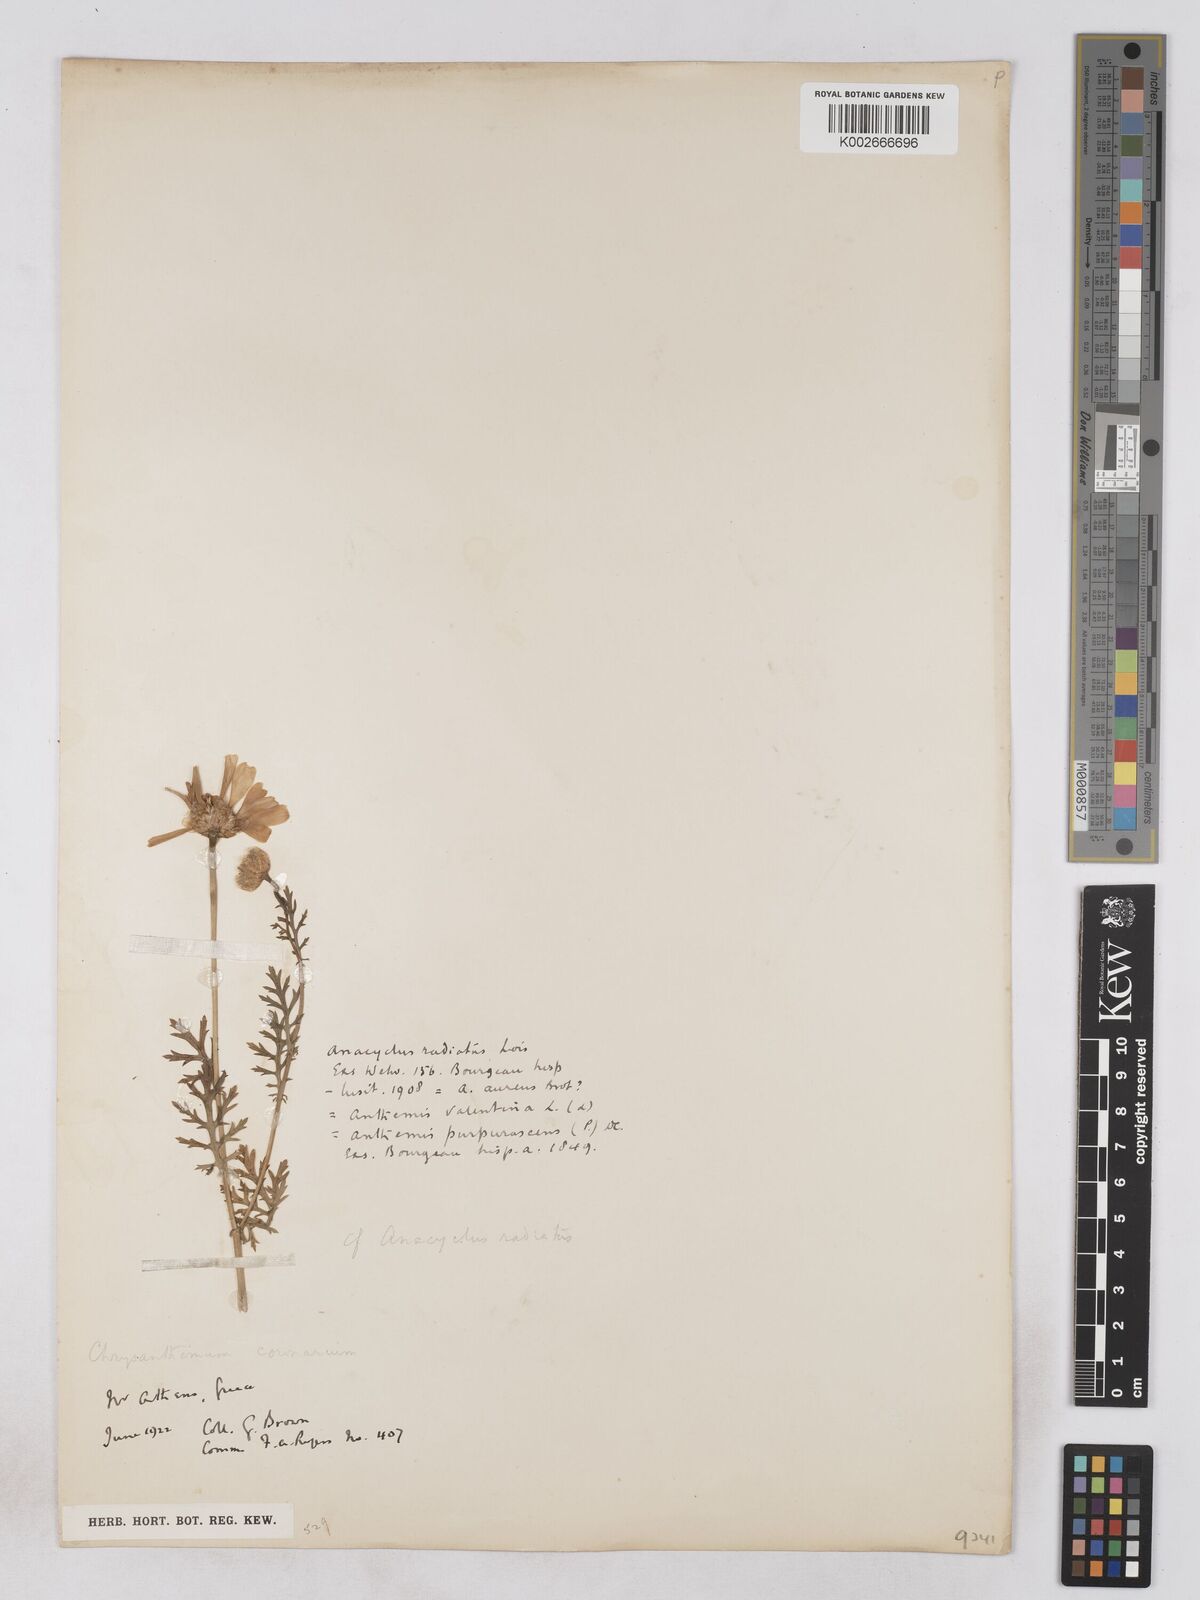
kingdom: Plantae
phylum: Tracheophyta
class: Magnoliopsida
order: Asterales
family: Asteraceae
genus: Glebionis
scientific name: Glebionis coronaria
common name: Crowndaisy
